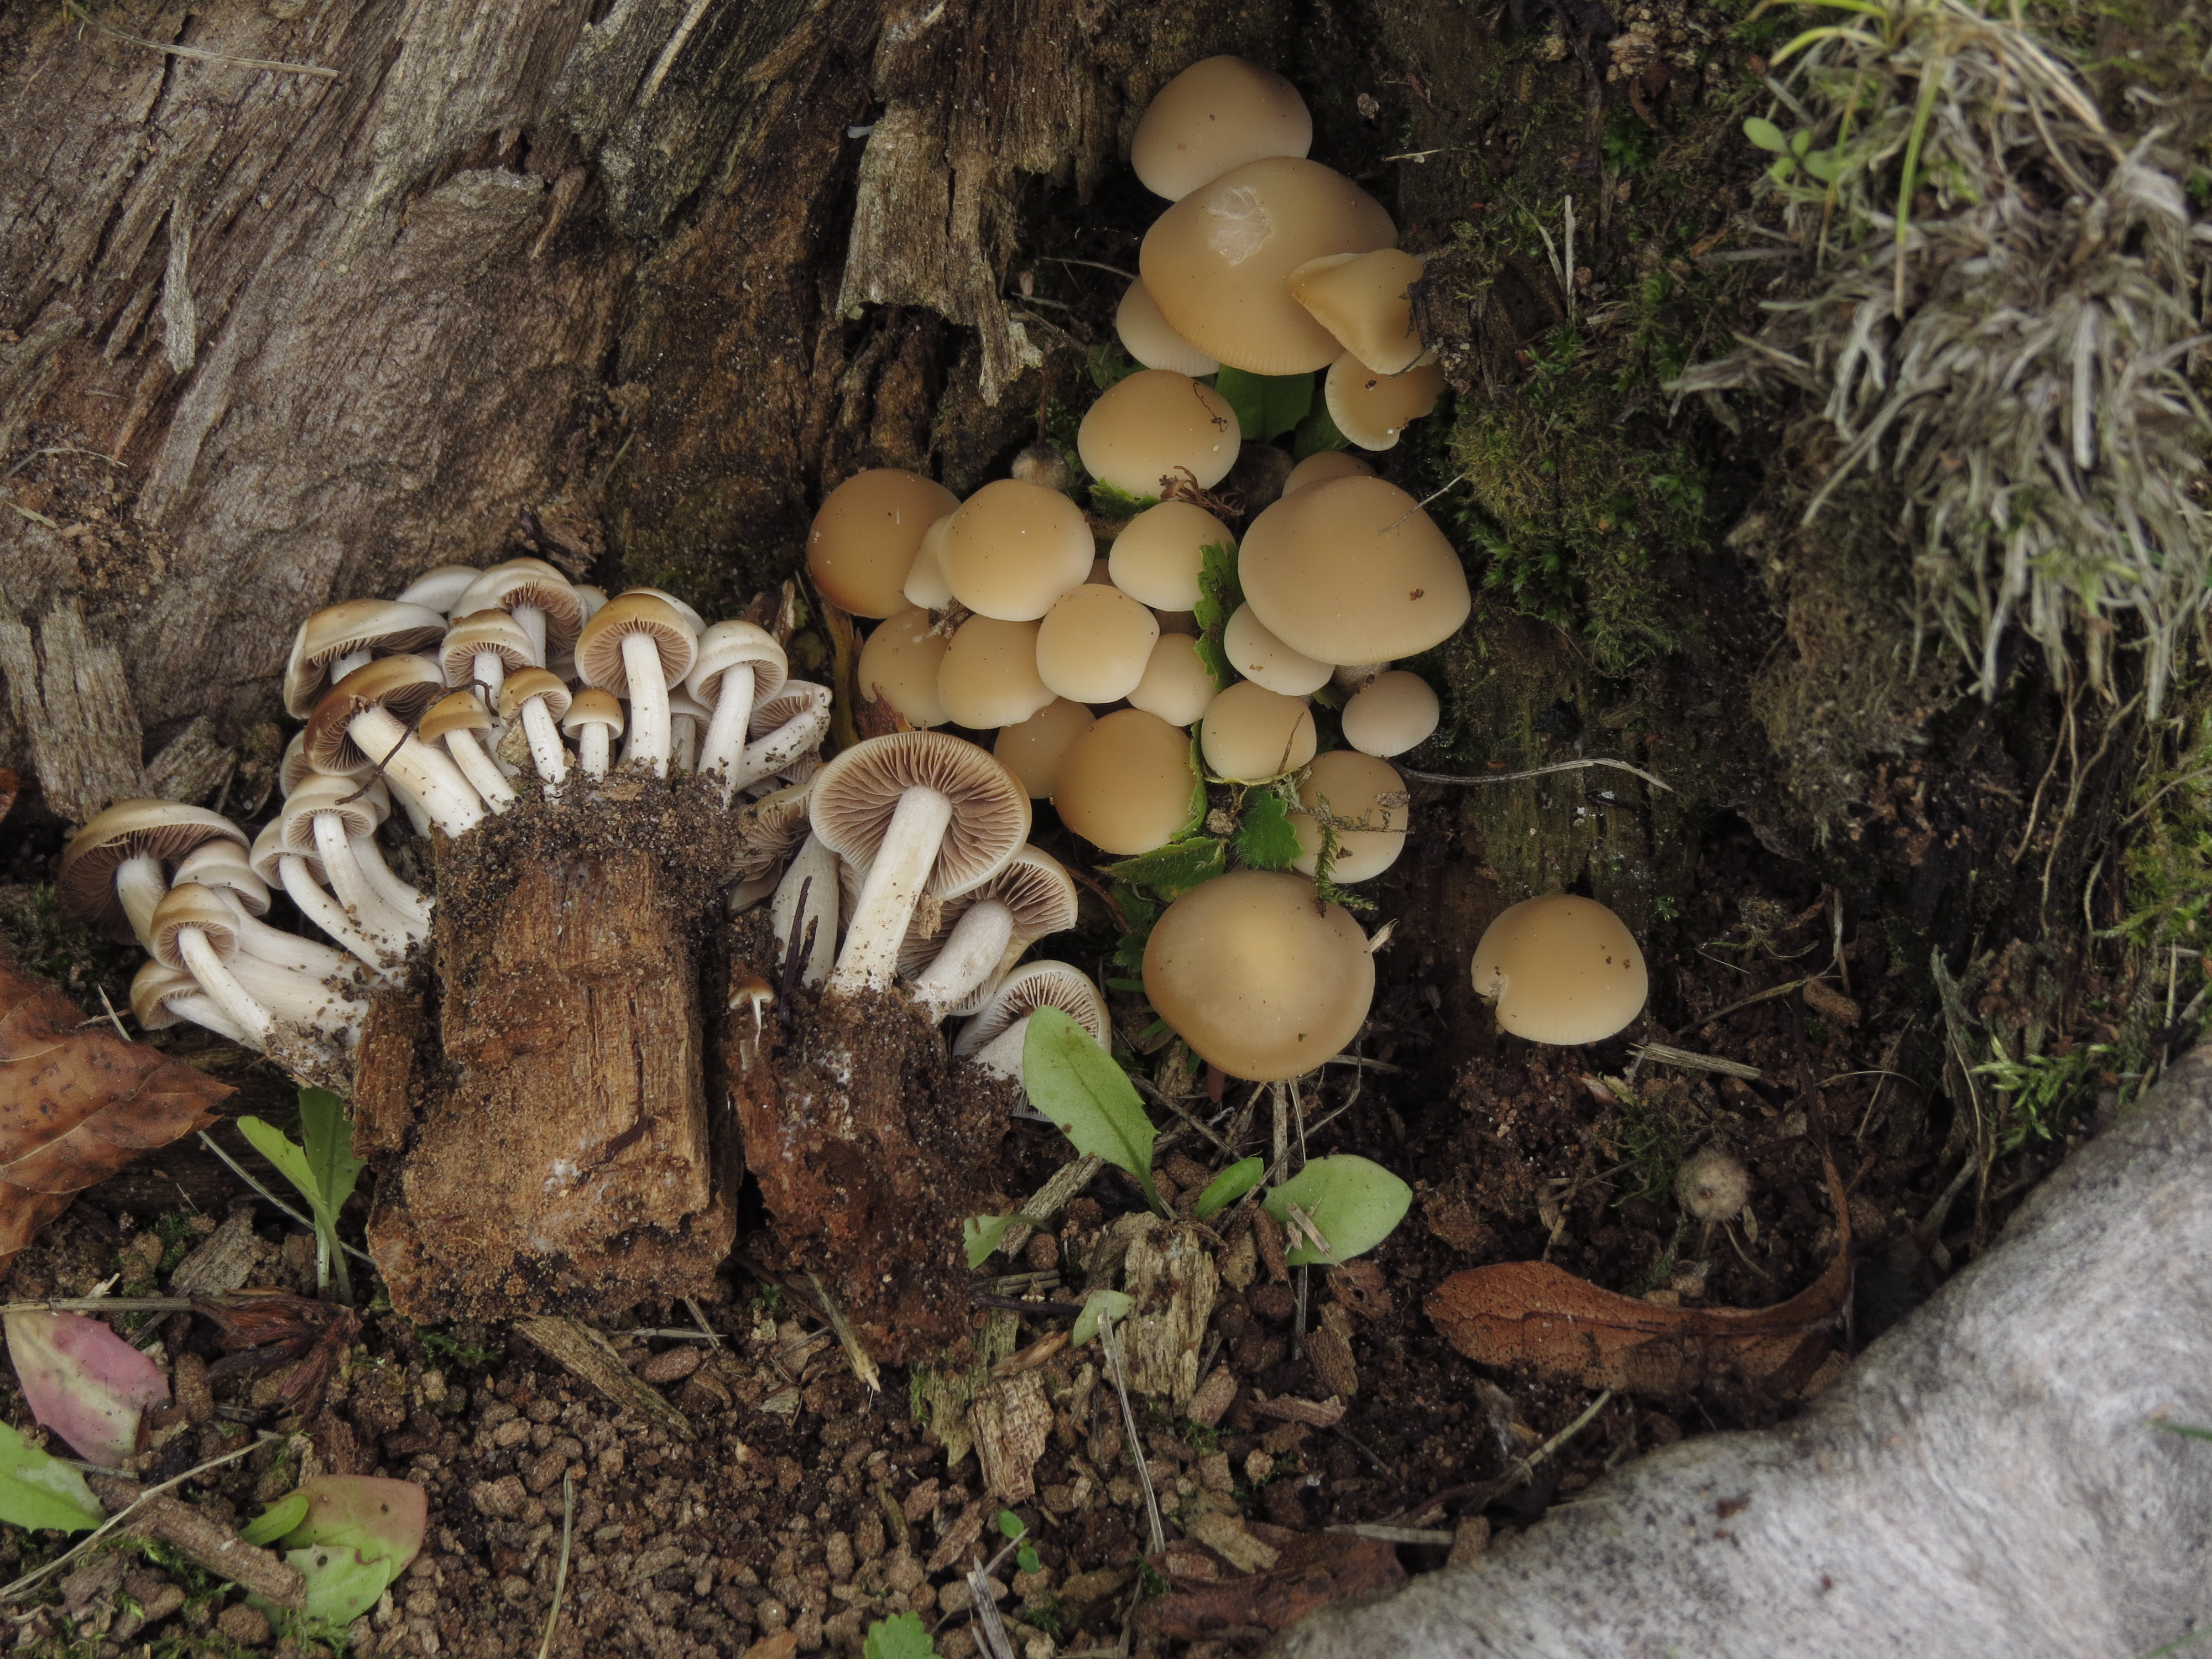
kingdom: Fungi
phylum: Basidiomycota
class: Agaricomycetes
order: Agaricales
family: Psathyrellaceae
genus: Homophron
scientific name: Homophron spadiceum
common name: Chestnut brittlestem
